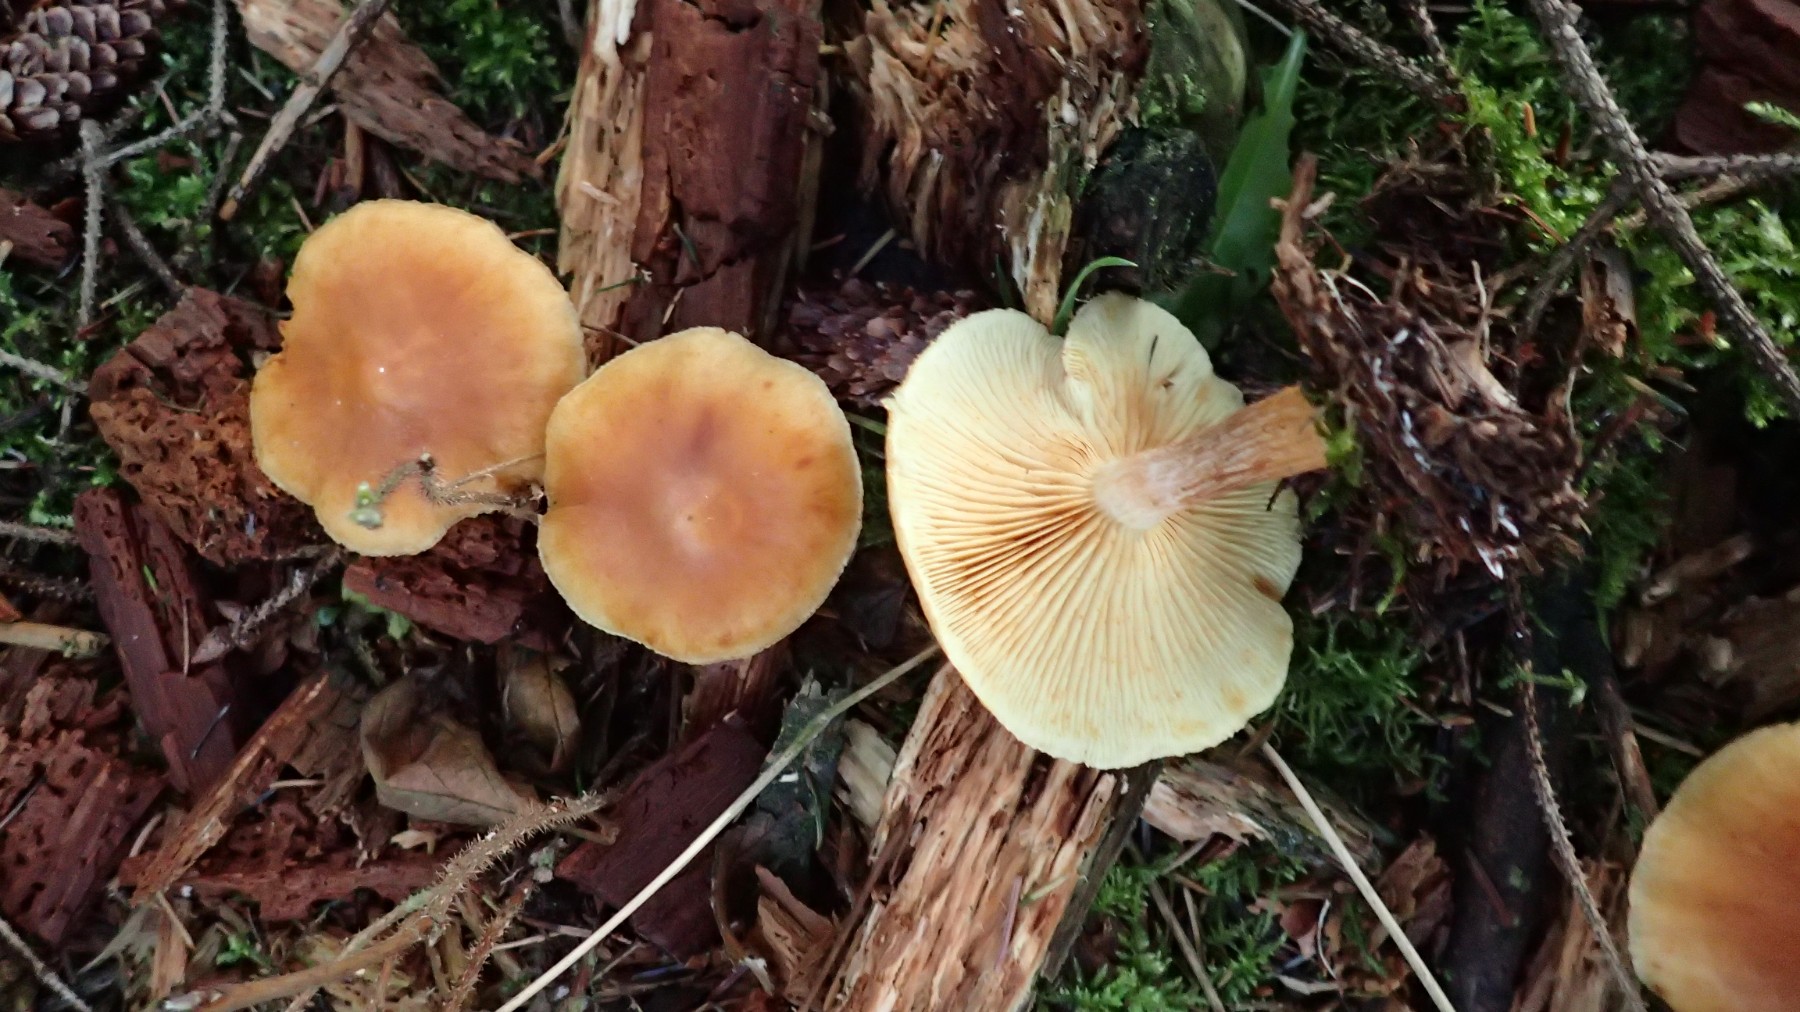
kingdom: Fungi
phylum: Basidiomycota
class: Agaricomycetes
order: Agaricales
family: Hymenogastraceae
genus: Gymnopilus
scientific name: Gymnopilus penetrans
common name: plettet flammehat
